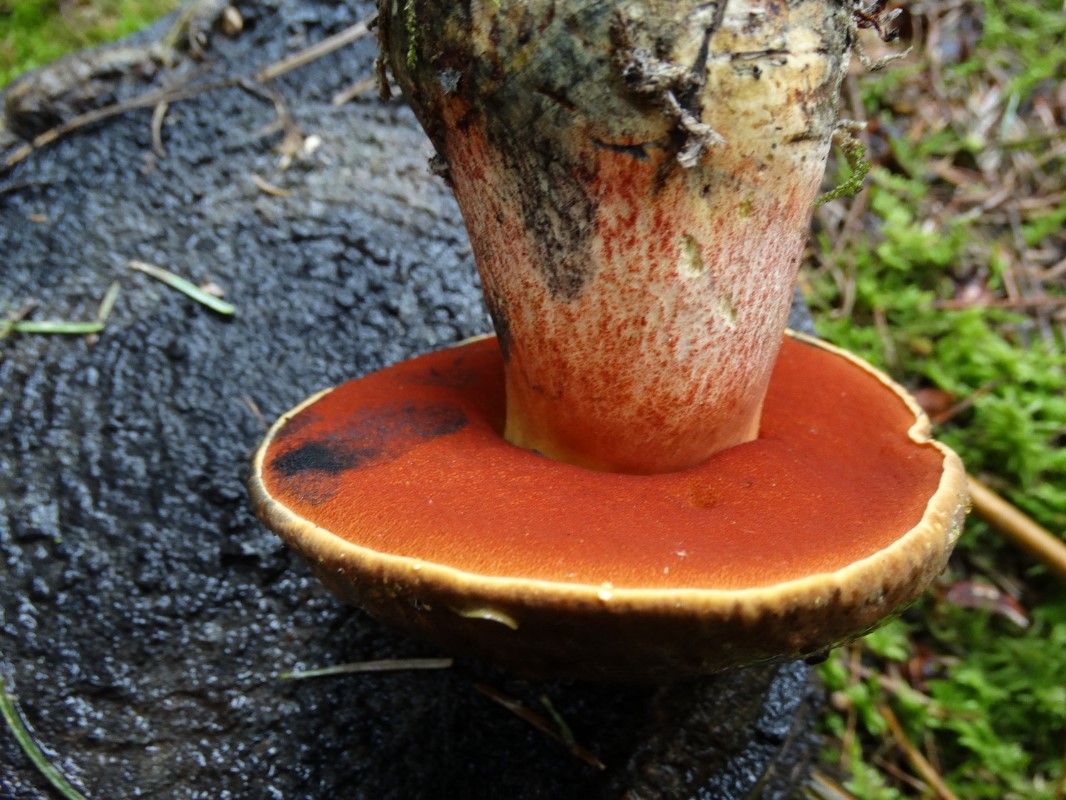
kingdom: Fungi
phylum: Basidiomycota
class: Agaricomycetes
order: Boletales
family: Boletaceae
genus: Neoboletus
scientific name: Neoboletus erythropus
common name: punktstokket indigorørhat
